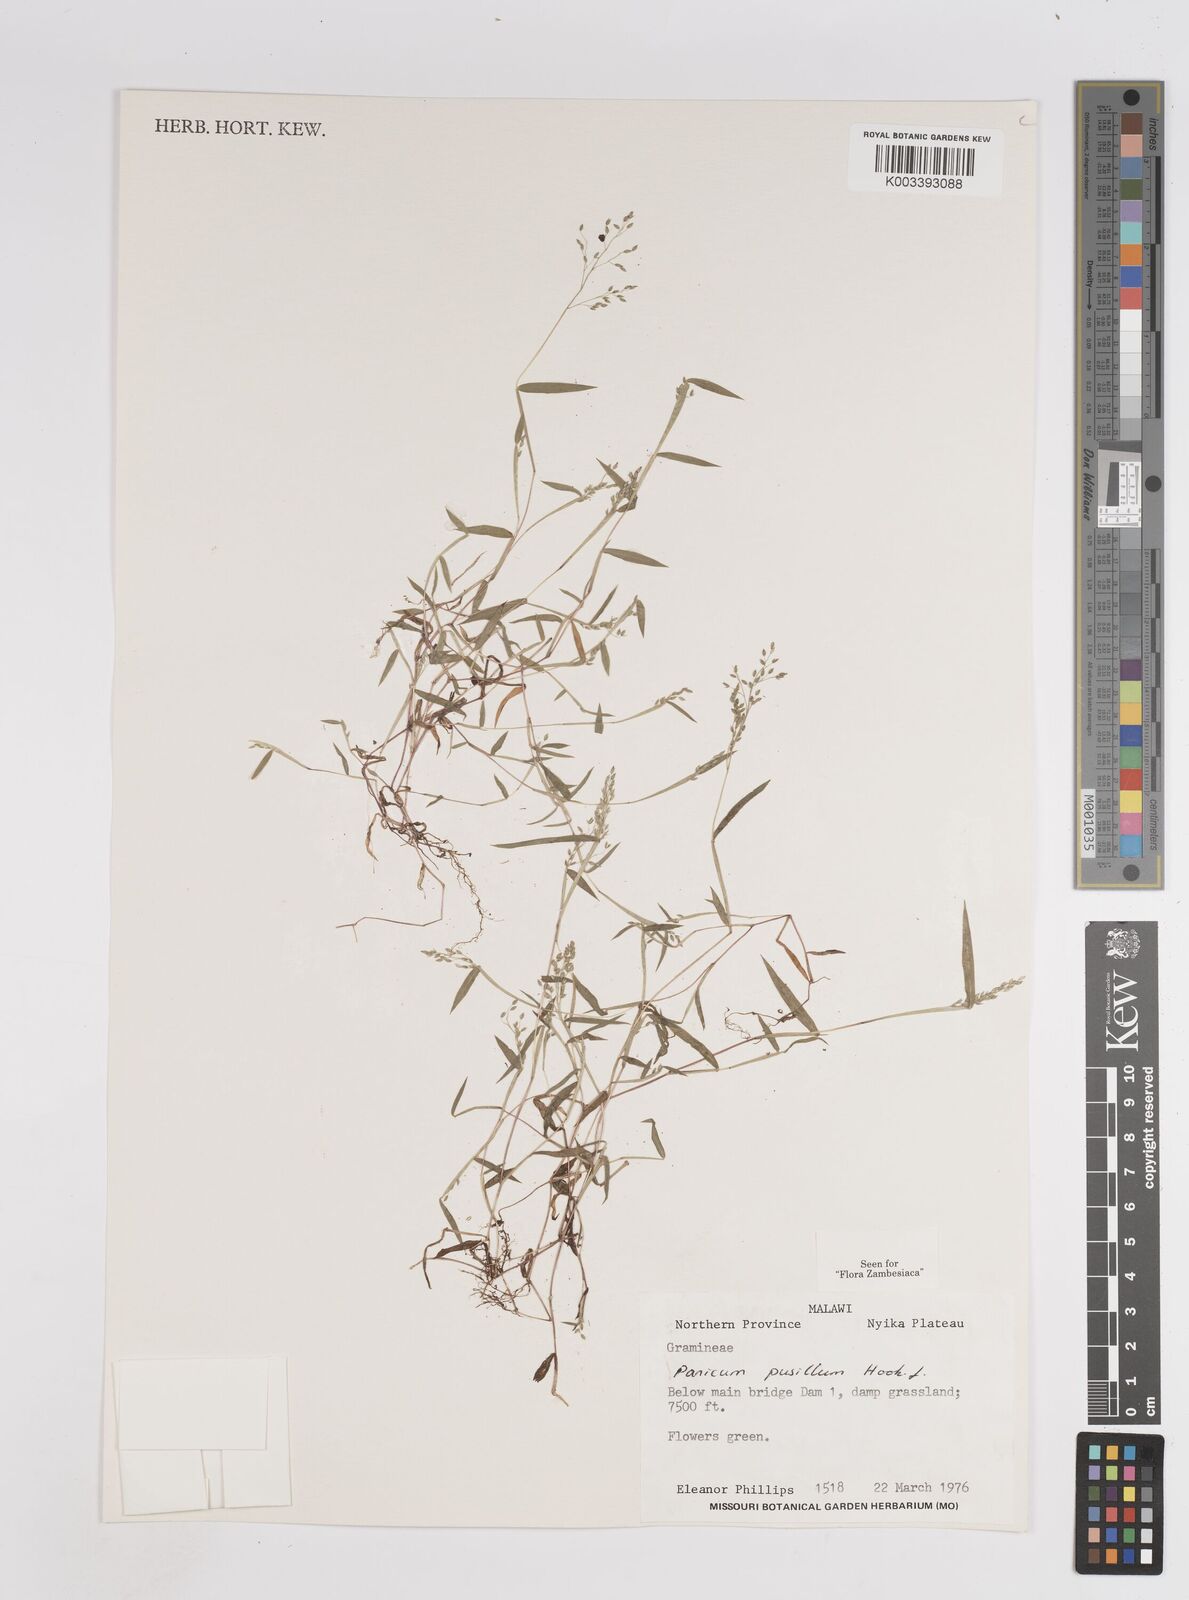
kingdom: Plantae
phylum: Tracheophyta
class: Liliopsida
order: Poales
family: Poaceae
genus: Panicum
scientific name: Panicum pusillum
